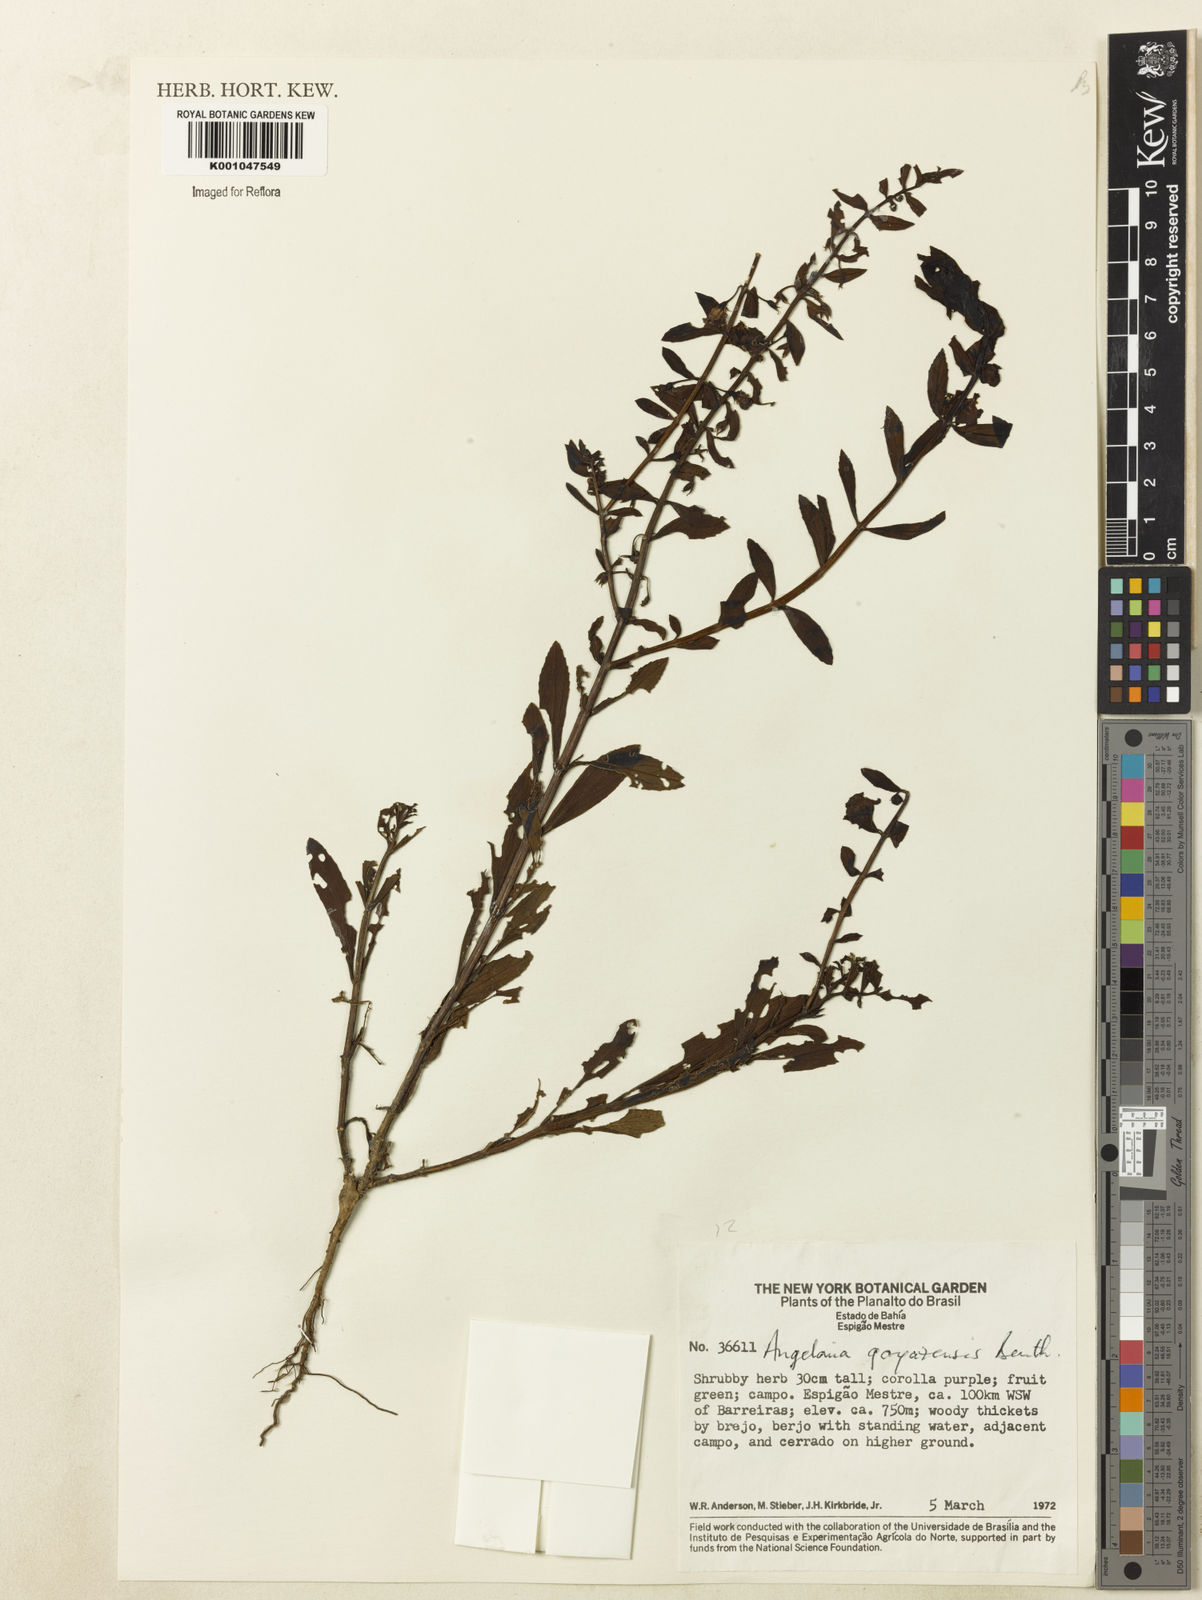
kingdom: Plantae
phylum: Tracheophyta
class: Magnoliopsida
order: Lamiales
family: Plantaginaceae
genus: Angelonia
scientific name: Angelonia goyazensis
